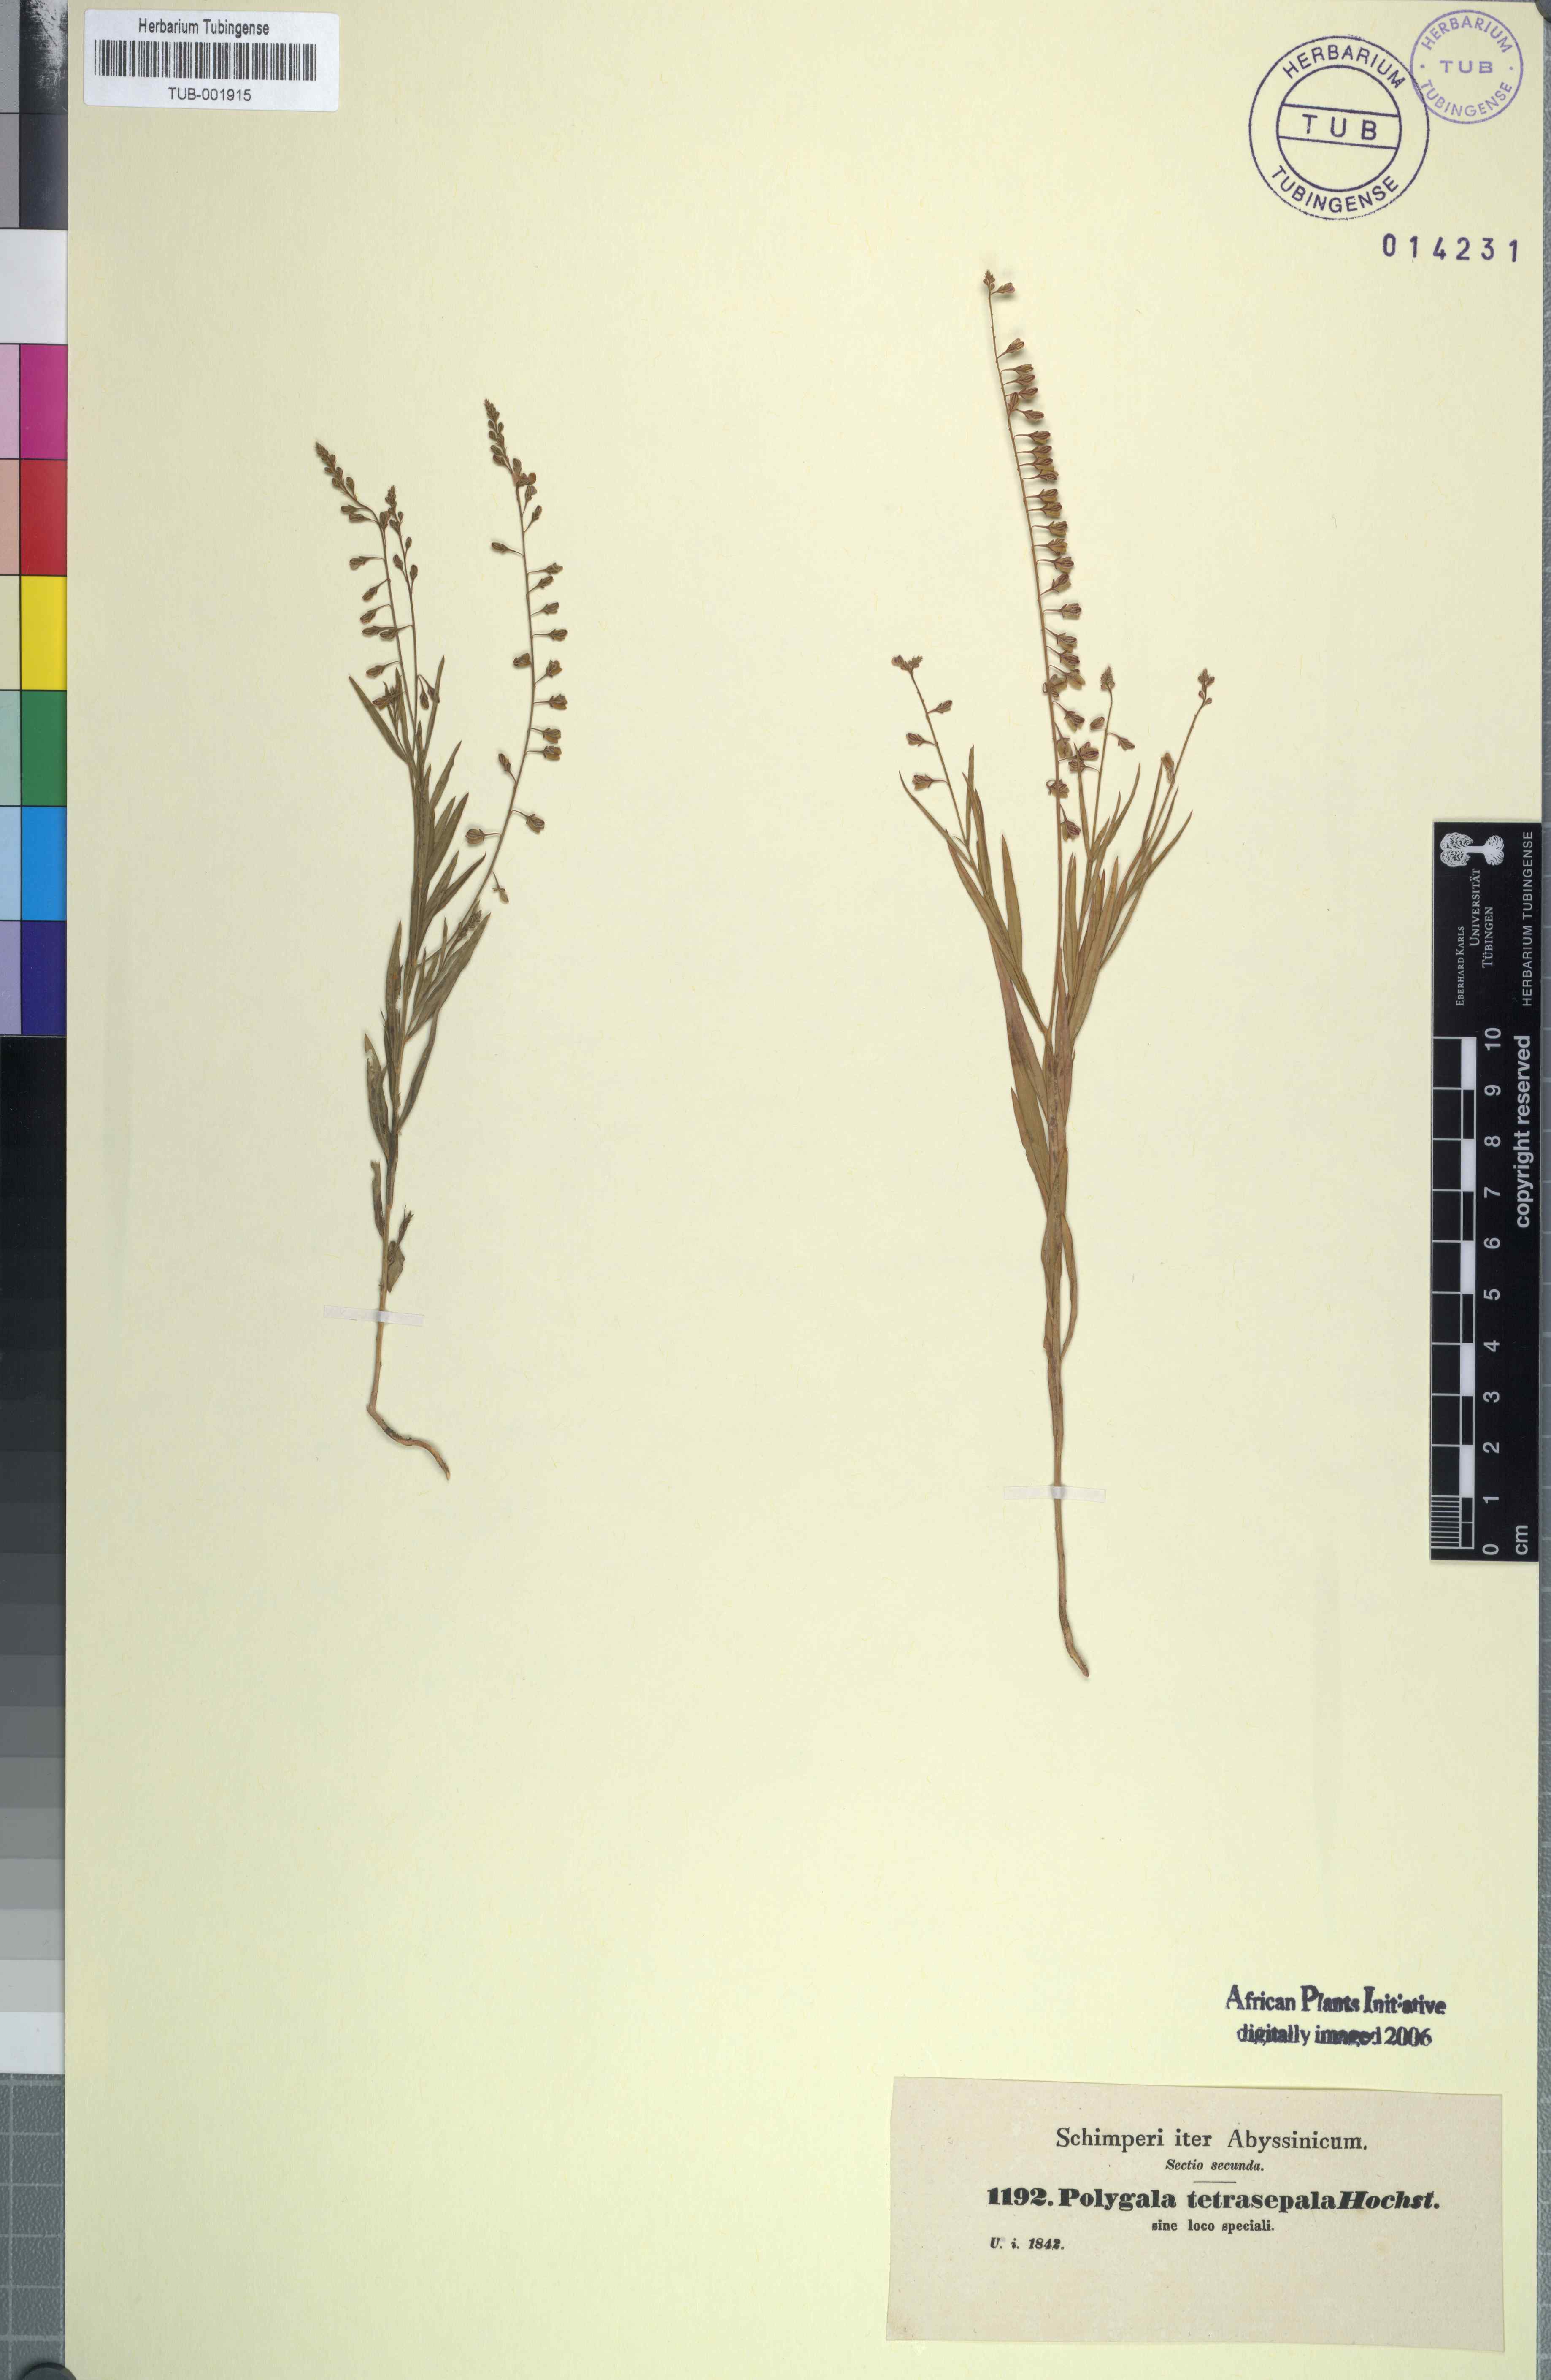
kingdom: Plantae
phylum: Tracheophyta
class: Magnoliopsida
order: Fabales
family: Polygalaceae
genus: Polygala
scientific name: Polygala petitiana
